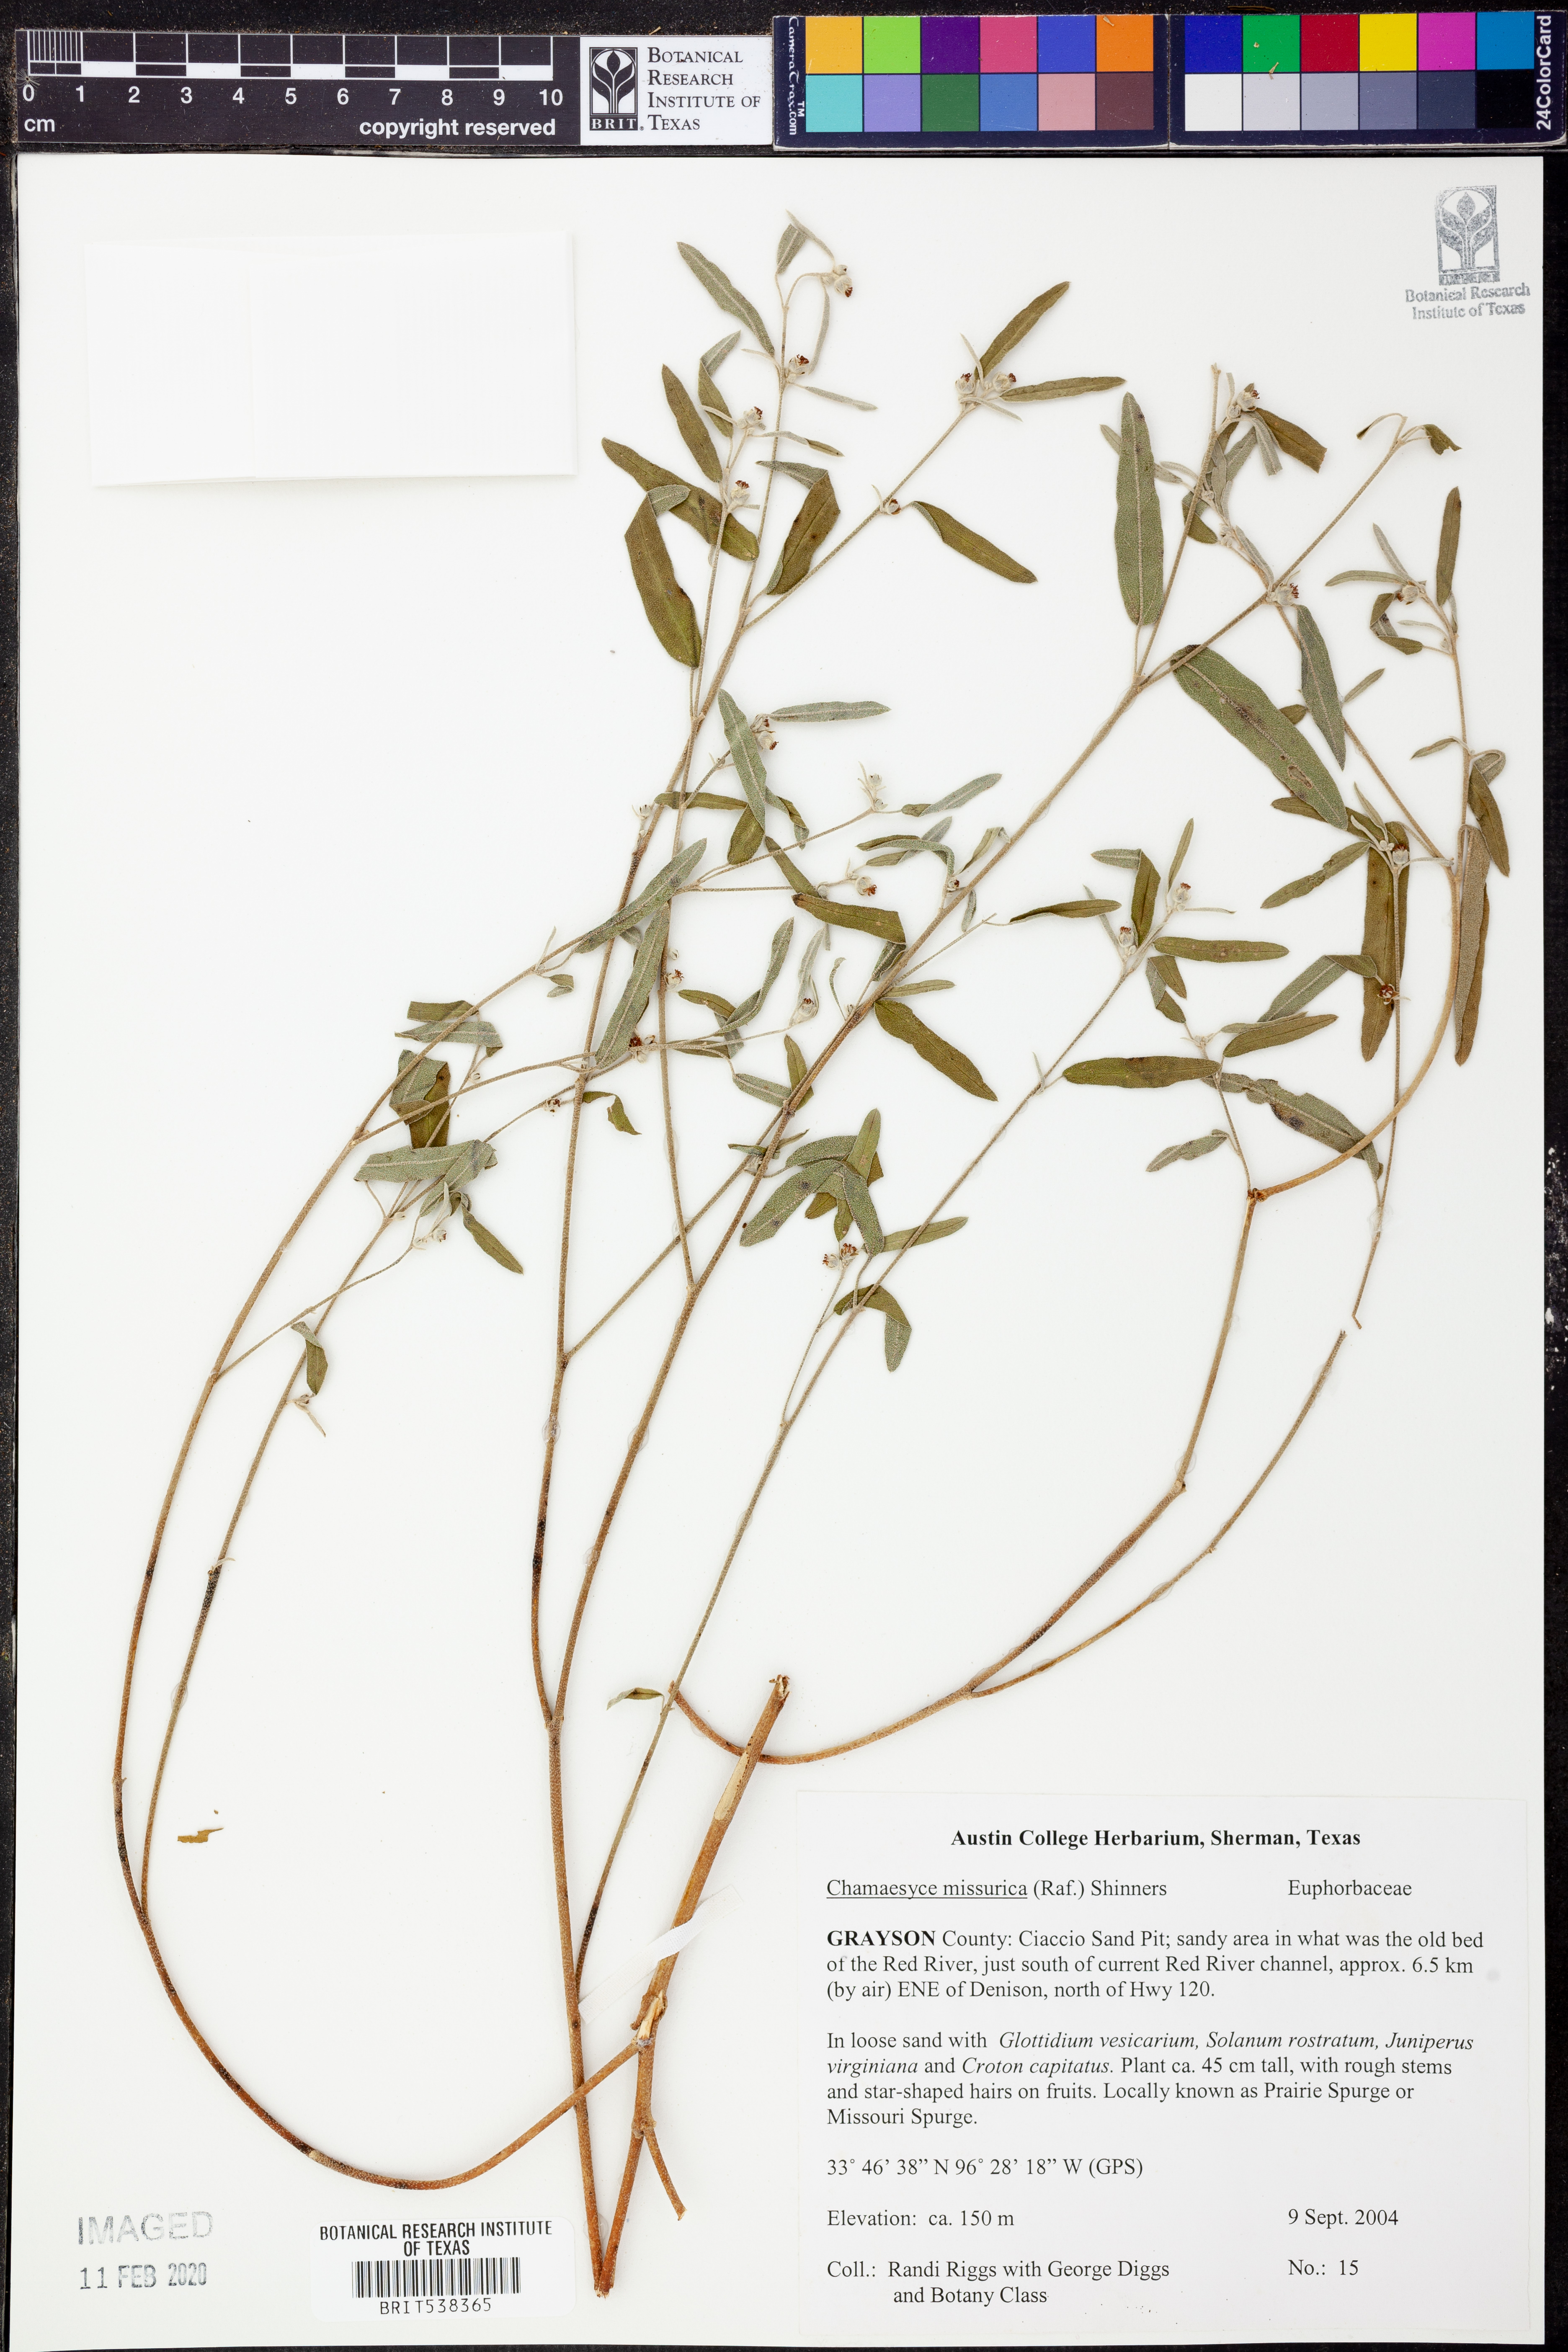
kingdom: Plantae
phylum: Tracheophyta
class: Magnoliopsida
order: Malpighiales
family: Euphorbiaceae
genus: Euphorbia
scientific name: Euphorbia missurica
